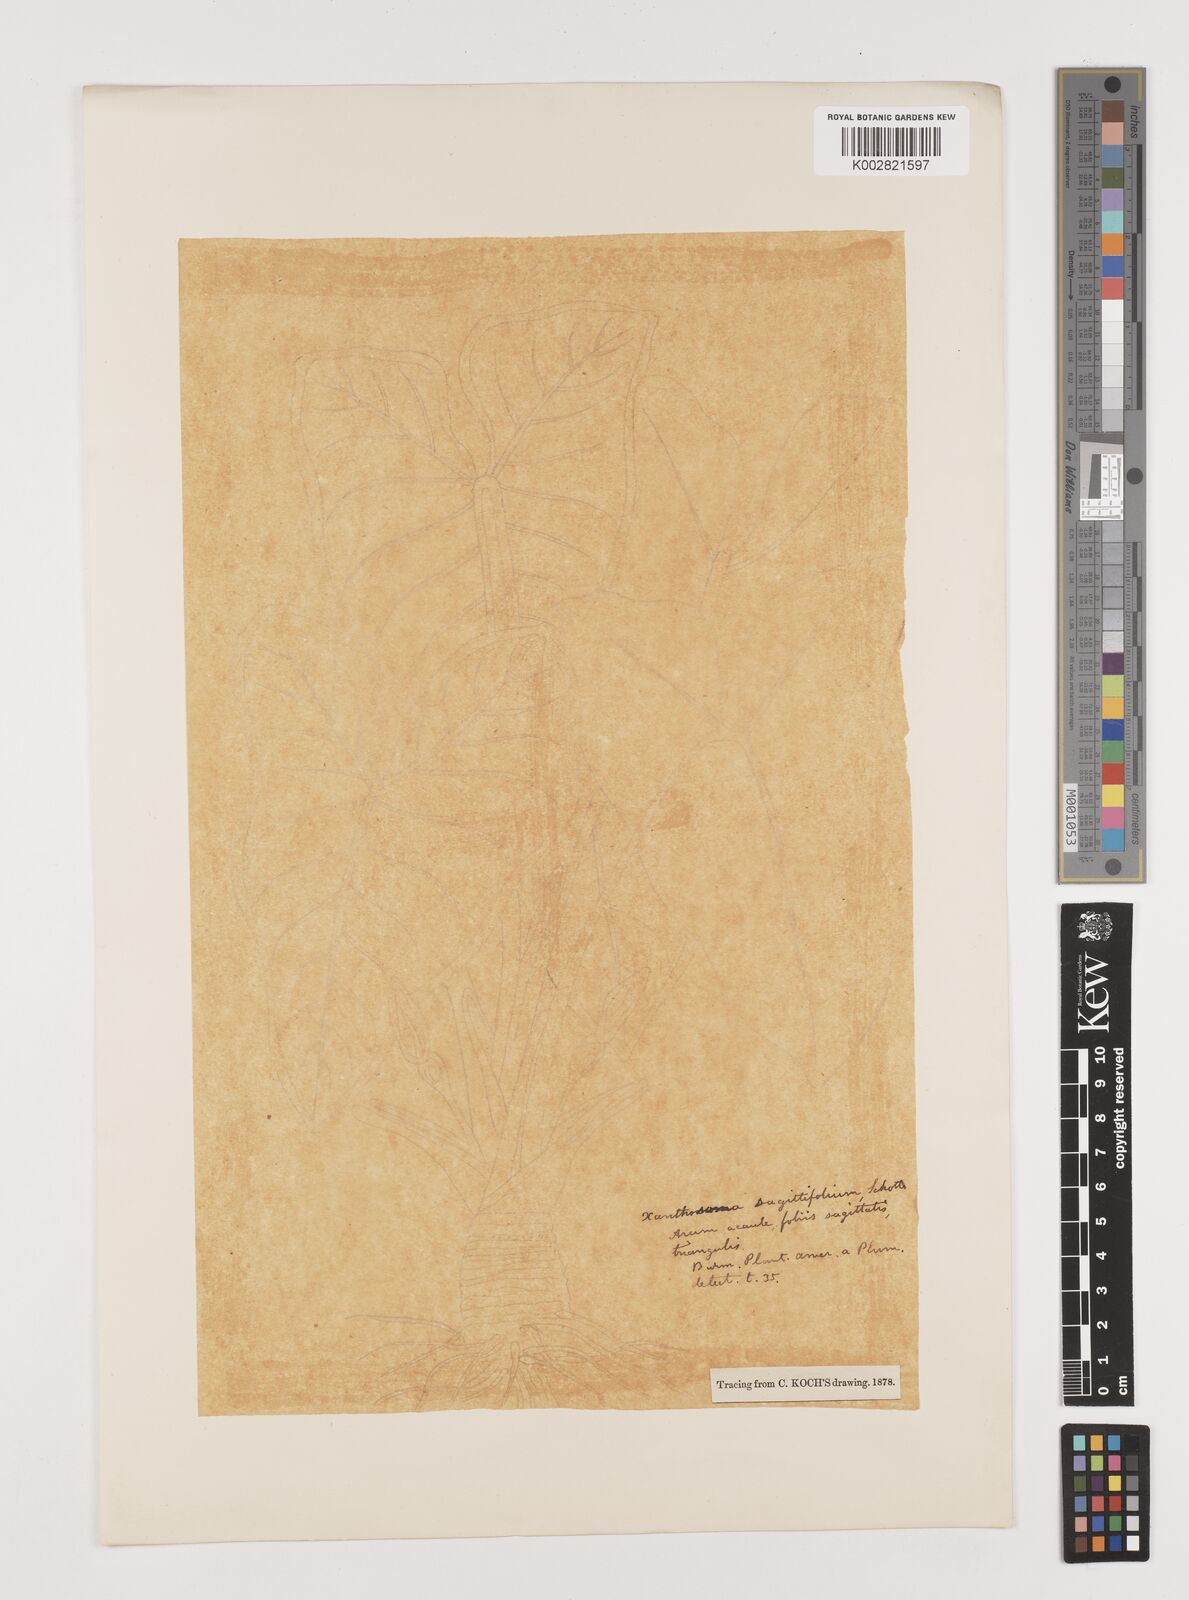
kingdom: Plantae
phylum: Tracheophyta
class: Liliopsida
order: Alismatales
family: Araceae
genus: Xanthosoma
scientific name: Xanthosoma sagittifolium
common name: Arrowleaf elephant's ear
